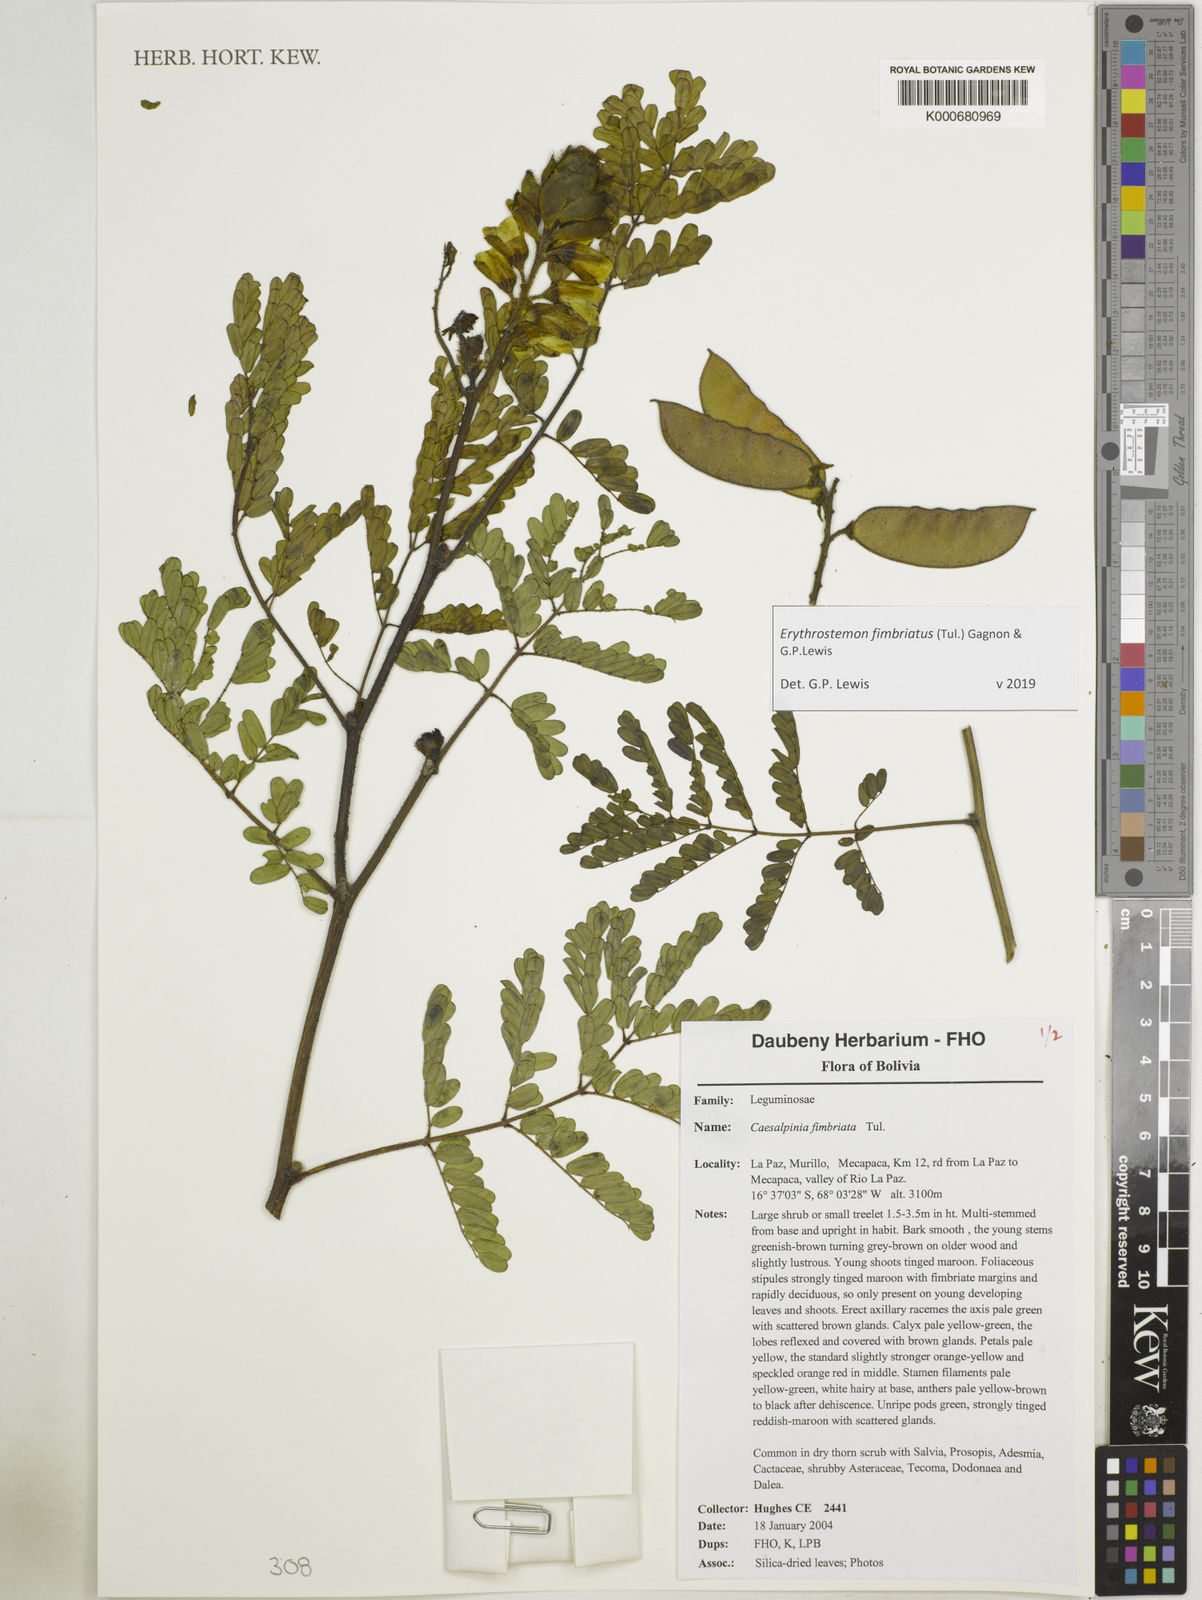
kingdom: Plantae
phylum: Tracheophyta
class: Magnoliopsida
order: Fabales
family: Fabaceae
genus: Erythrostemon
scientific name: Erythrostemon fimbriatus
